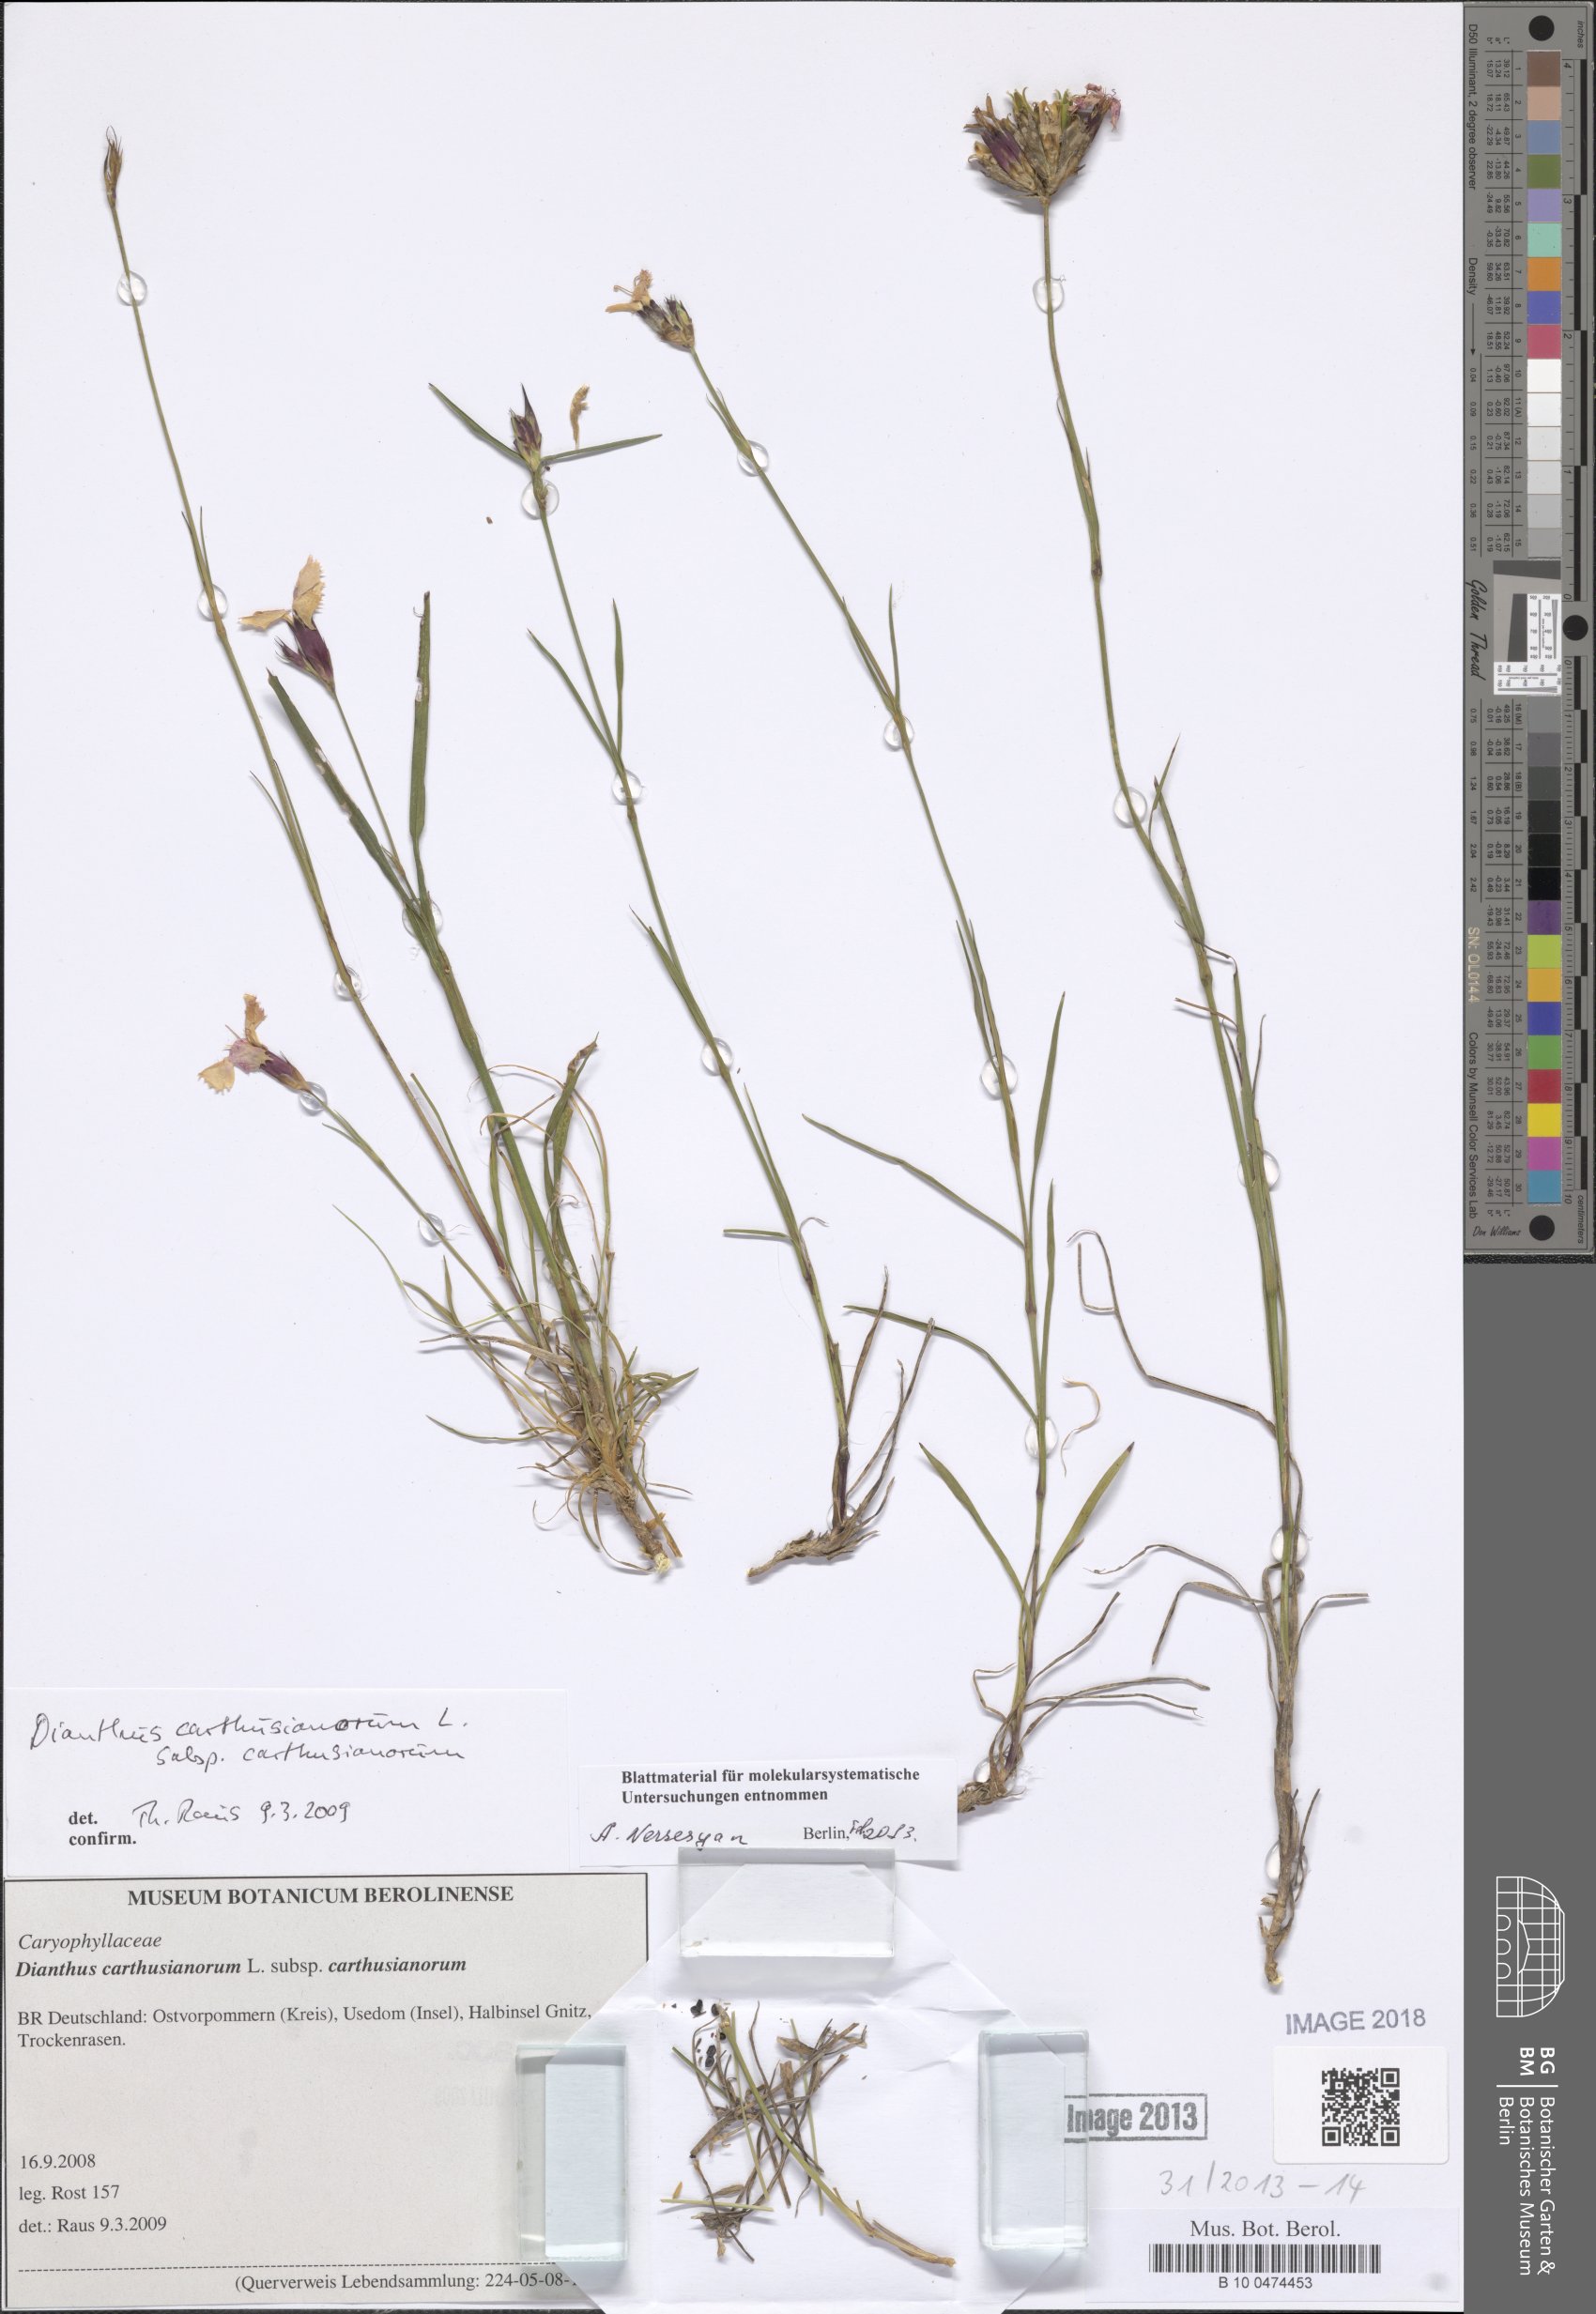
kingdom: Plantae
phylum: Tracheophyta
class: Magnoliopsida
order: Caryophyllales
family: Caryophyllaceae
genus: Dianthus
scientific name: Dianthus carthusianorum
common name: Carthusian pink
